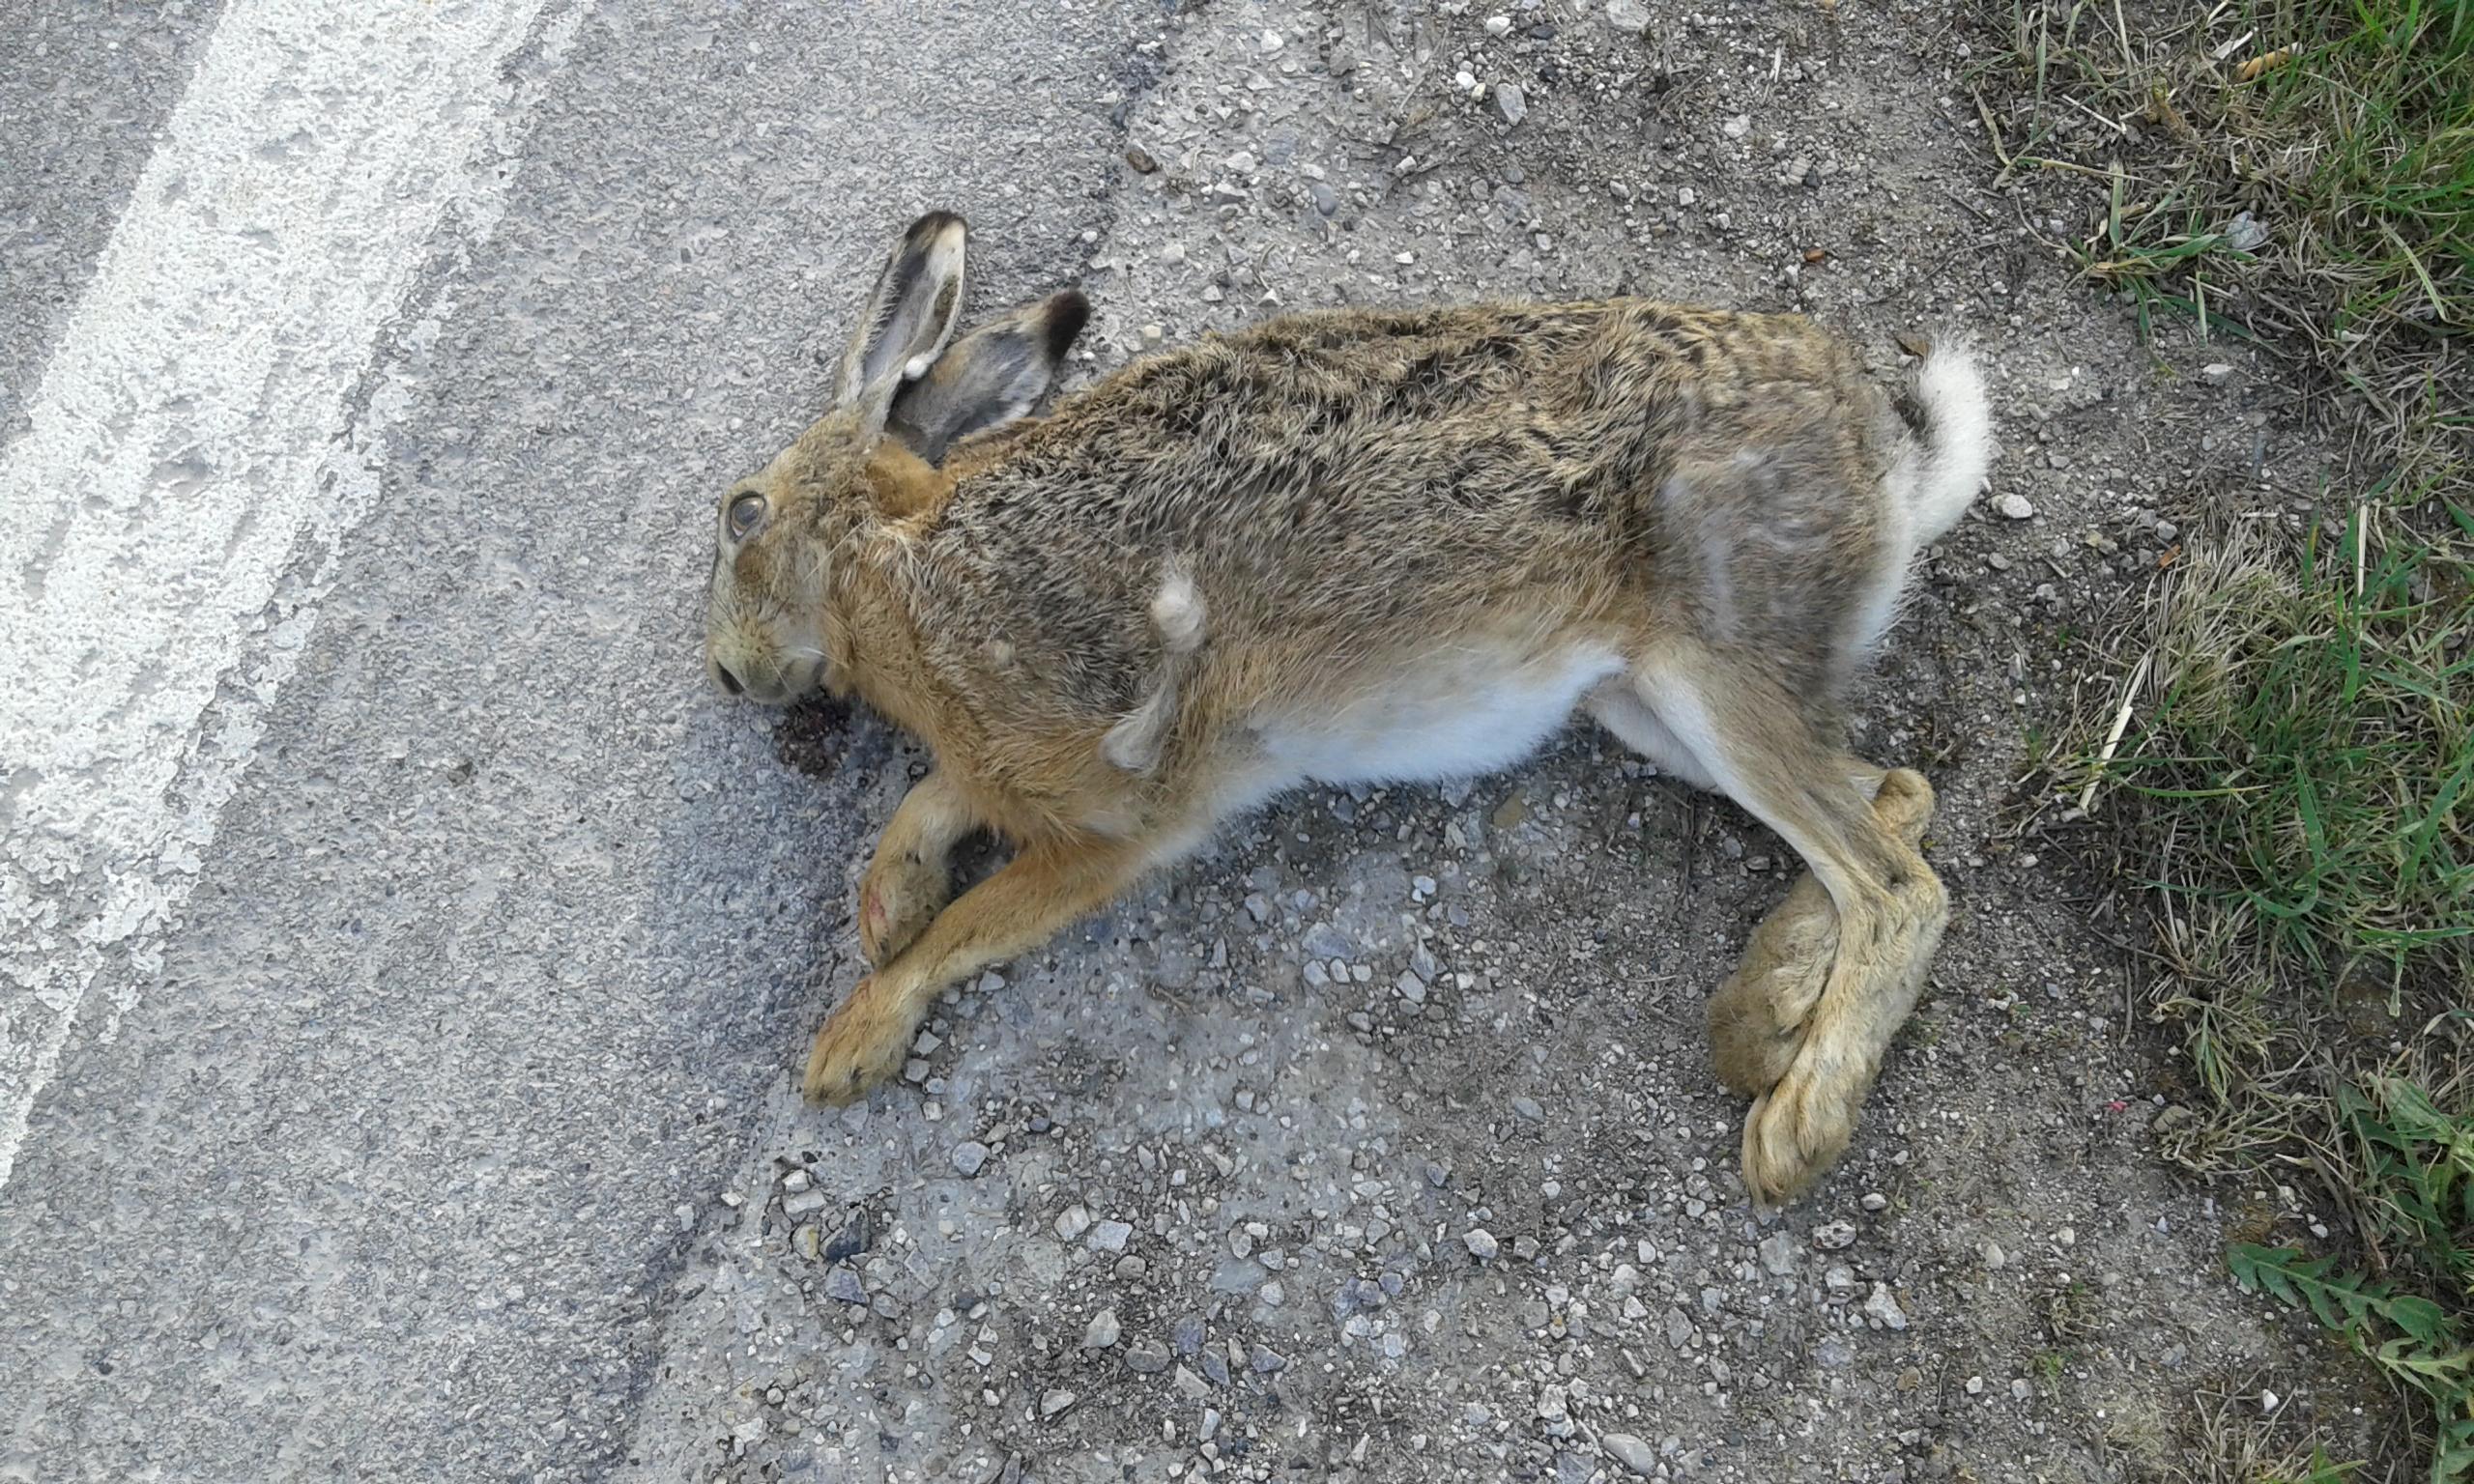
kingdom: Animalia
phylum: Chordata
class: Mammalia
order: Lagomorpha
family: Leporidae
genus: Lepus
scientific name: Lepus europaeus
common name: European hare
